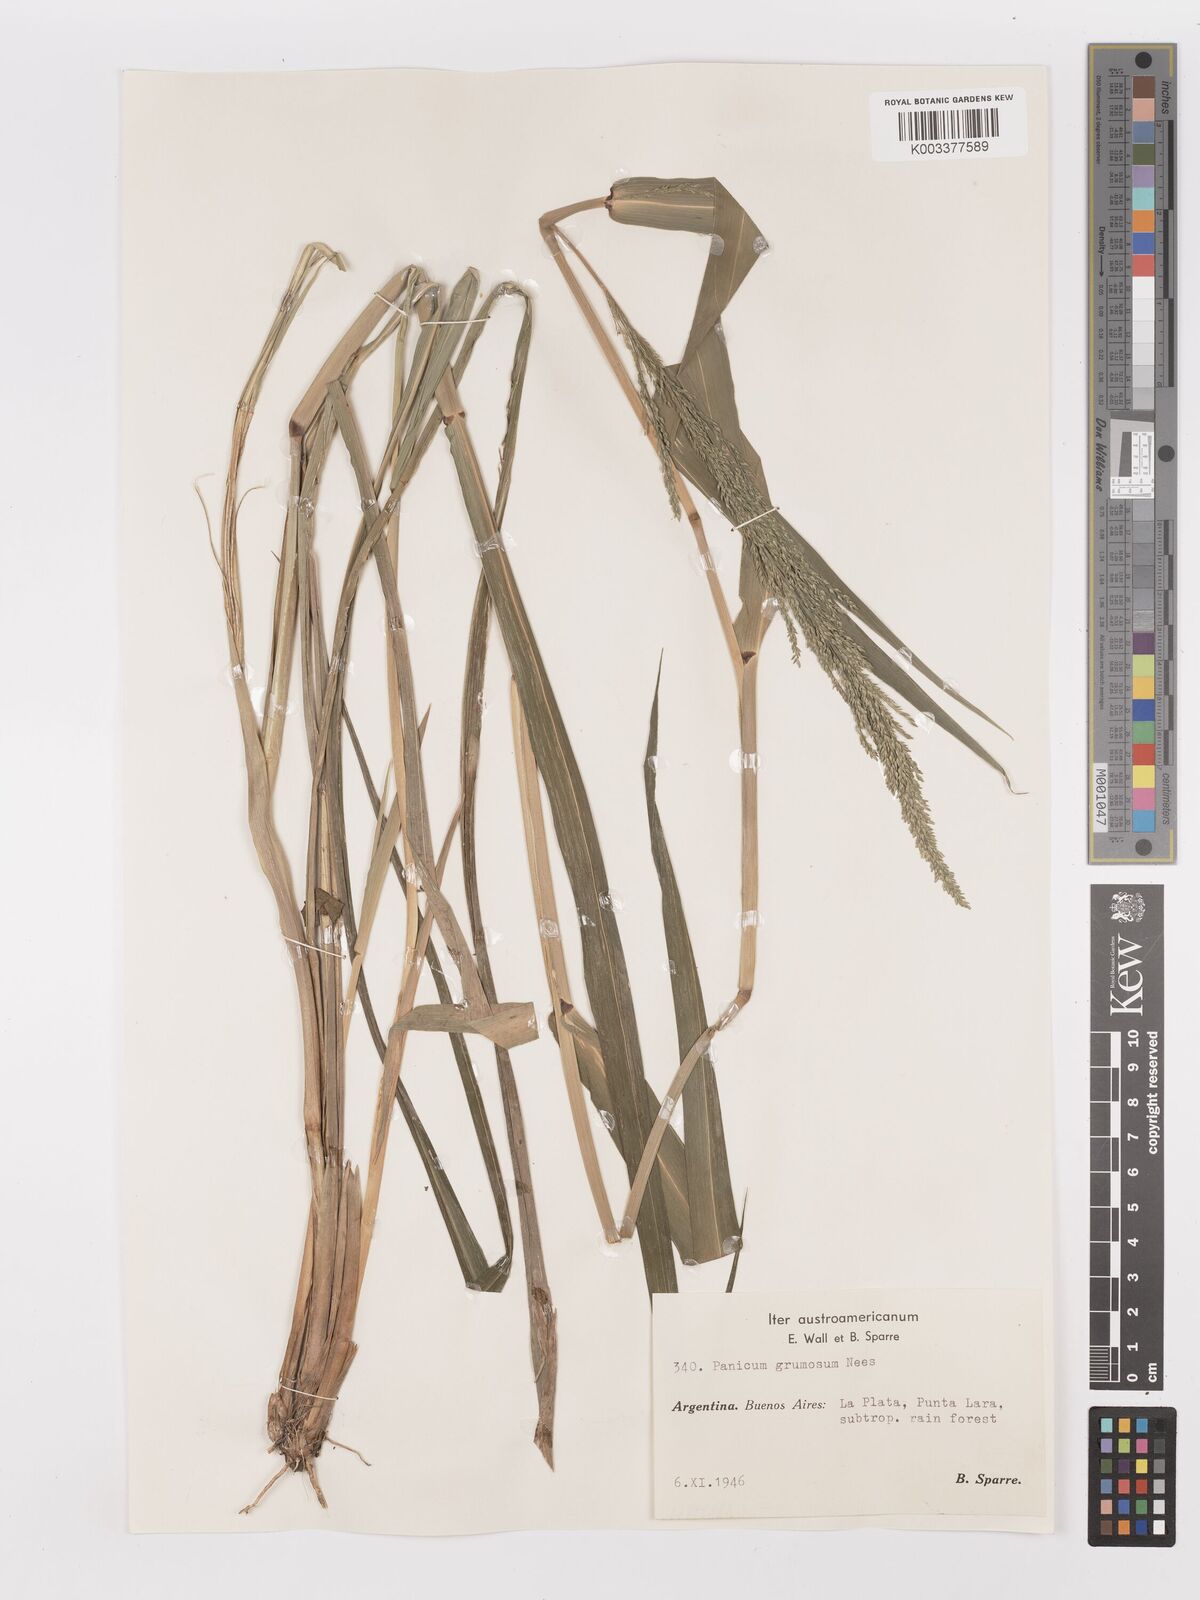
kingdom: Plantae
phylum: Tracheophyta
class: Liliopsida
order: Poales
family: Poaceae
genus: Hymenachne
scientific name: Hymenachne grumosa
